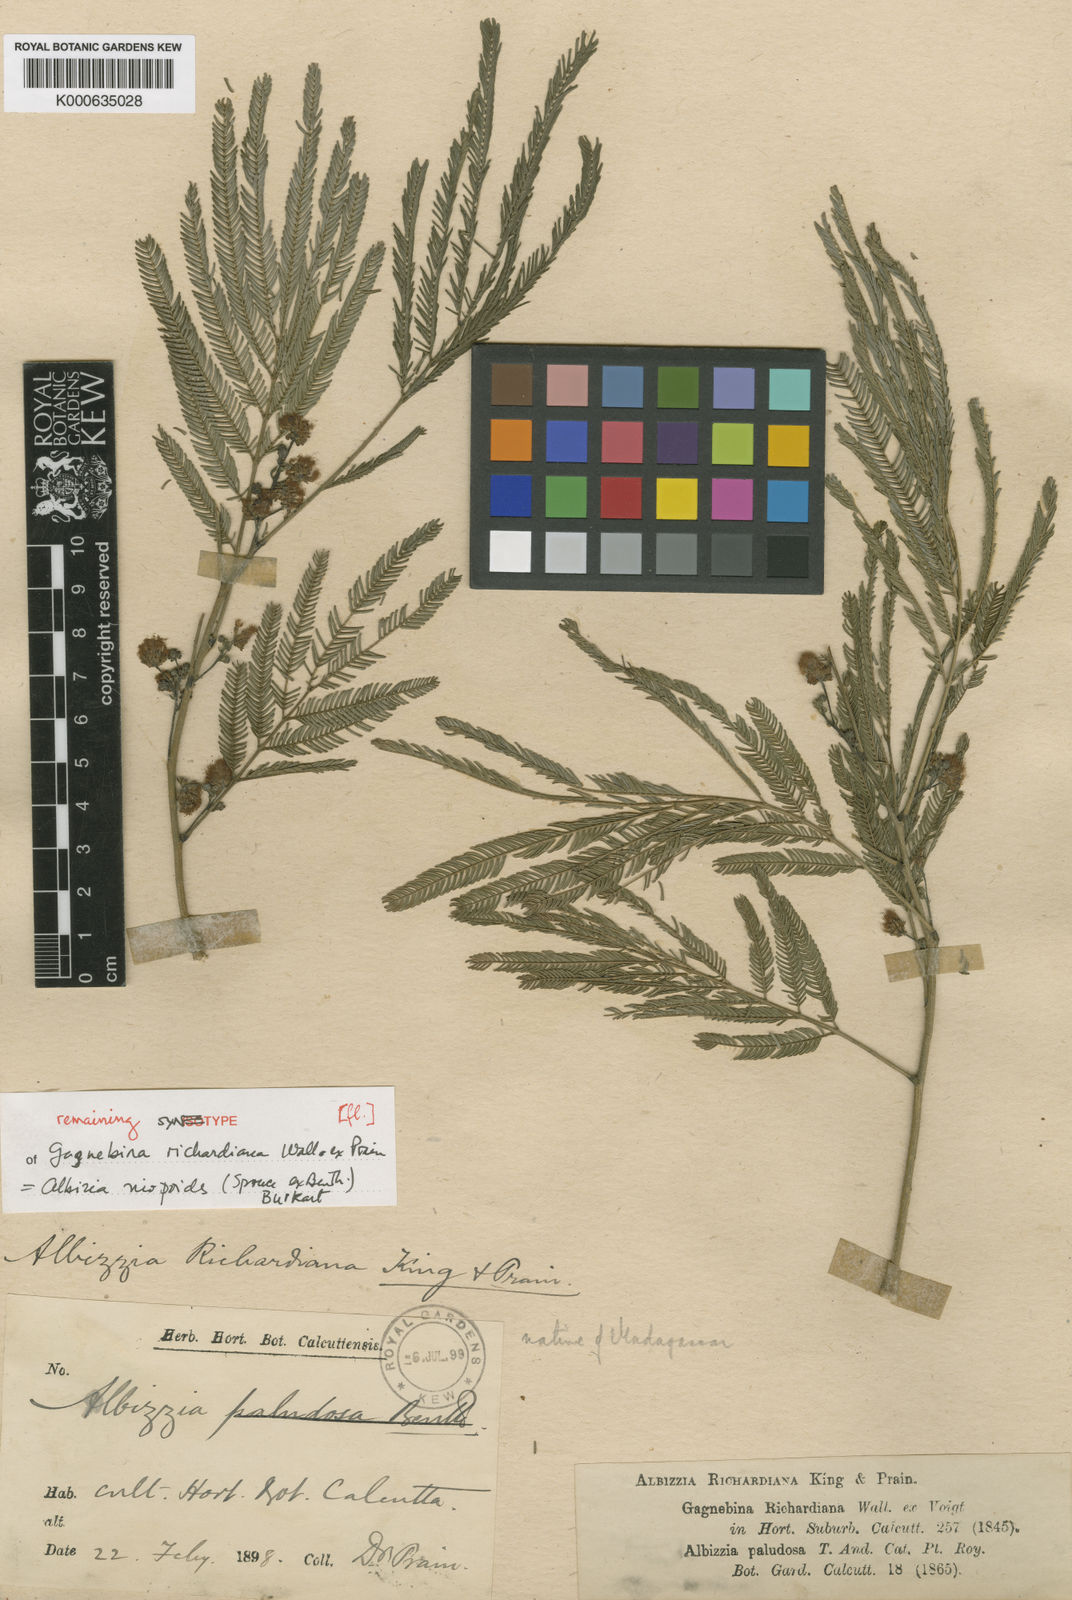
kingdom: Plantae
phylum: Tracheophyta
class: Magnoliopsida
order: Fabales
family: Fabaceae
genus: Albizia
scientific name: Albizia niopoides
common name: Silk tree
